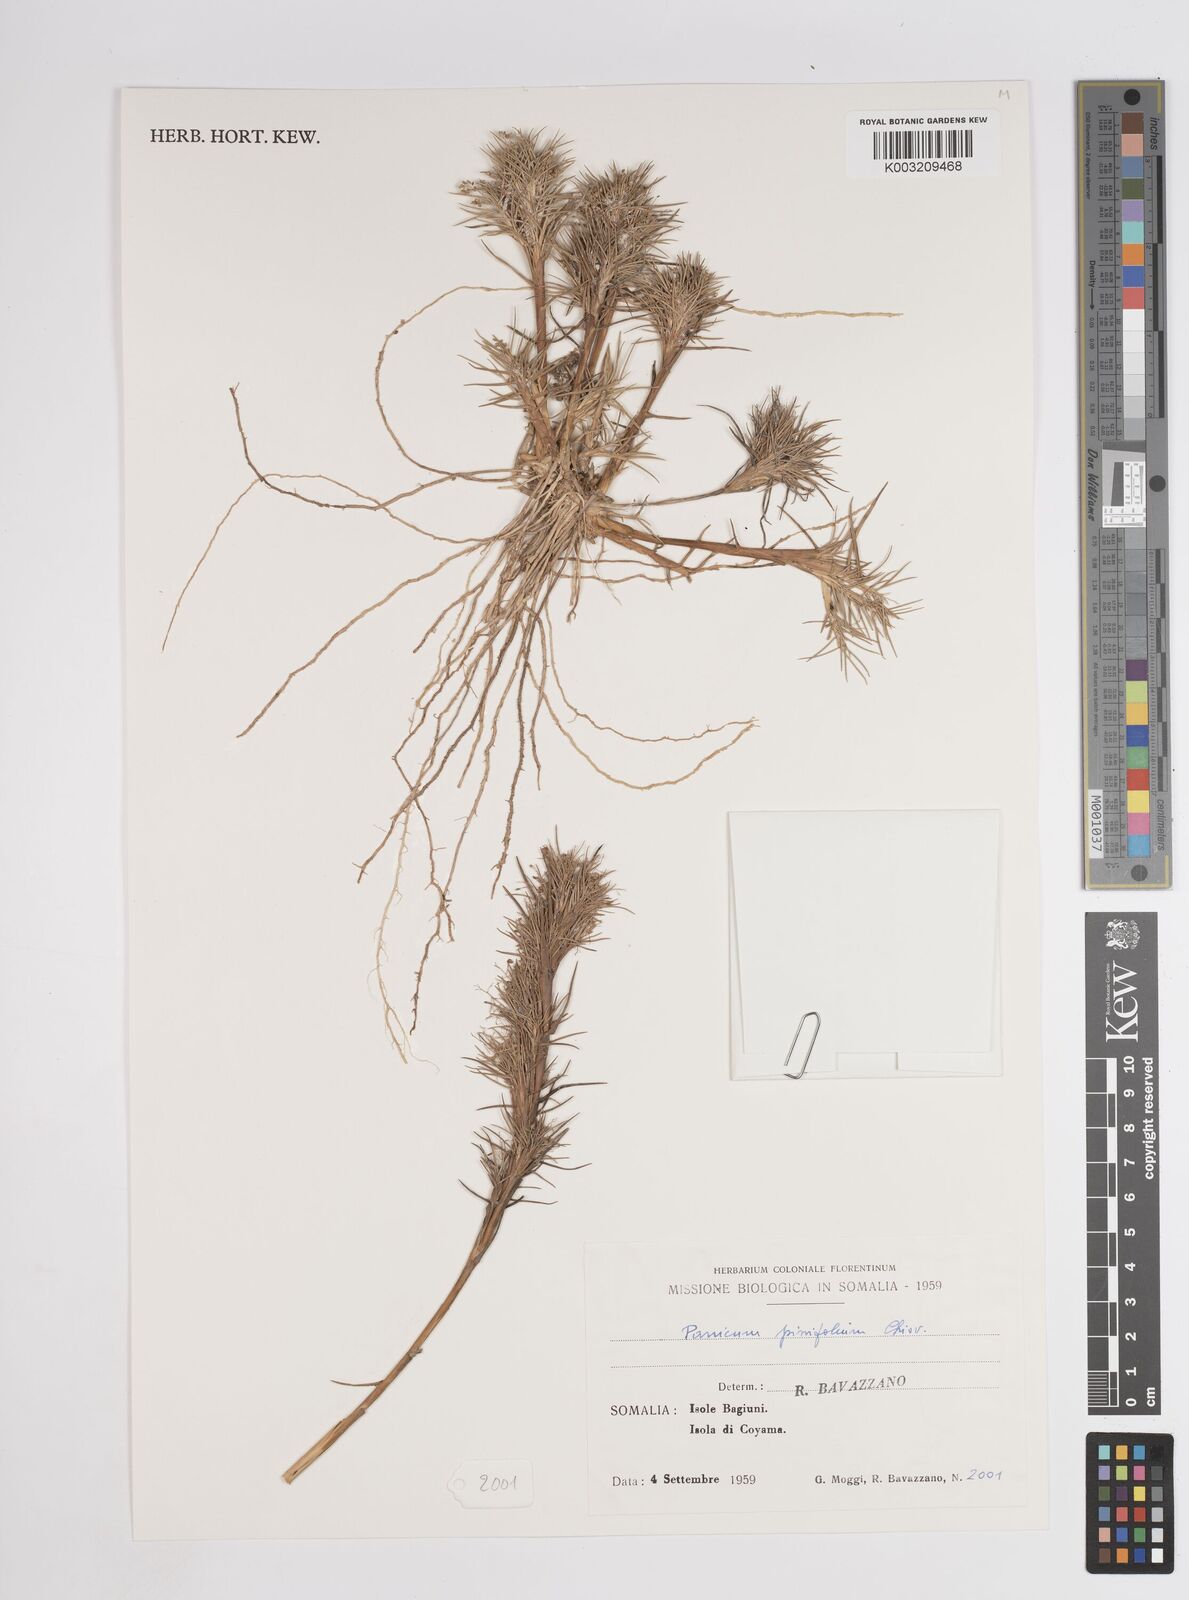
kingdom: Plantae
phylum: Tracheophyta
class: Liliopsida
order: Poales
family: Poaceae
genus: Panicum
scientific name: Panicum pinifolium
